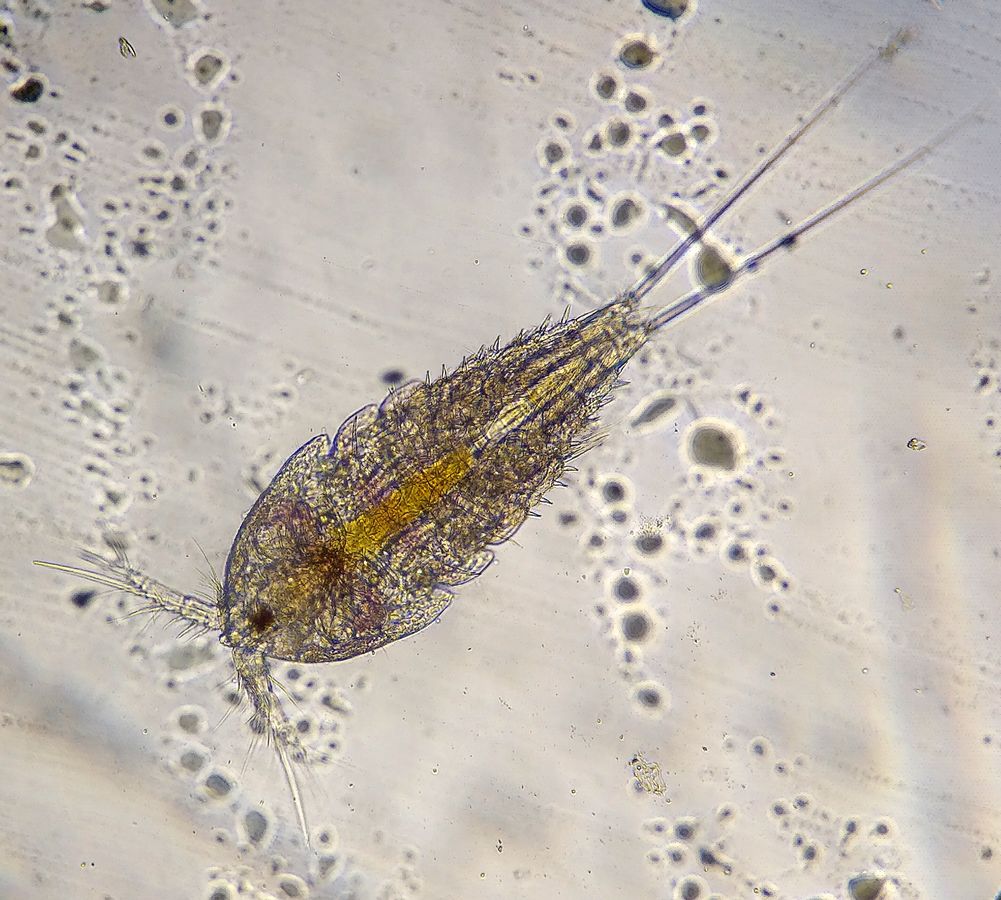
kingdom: Animalia
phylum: Arthropoda
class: Copepoda
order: Harpacticoida
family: Tisbidae
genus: Tisbe
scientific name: Tisbe furcata
